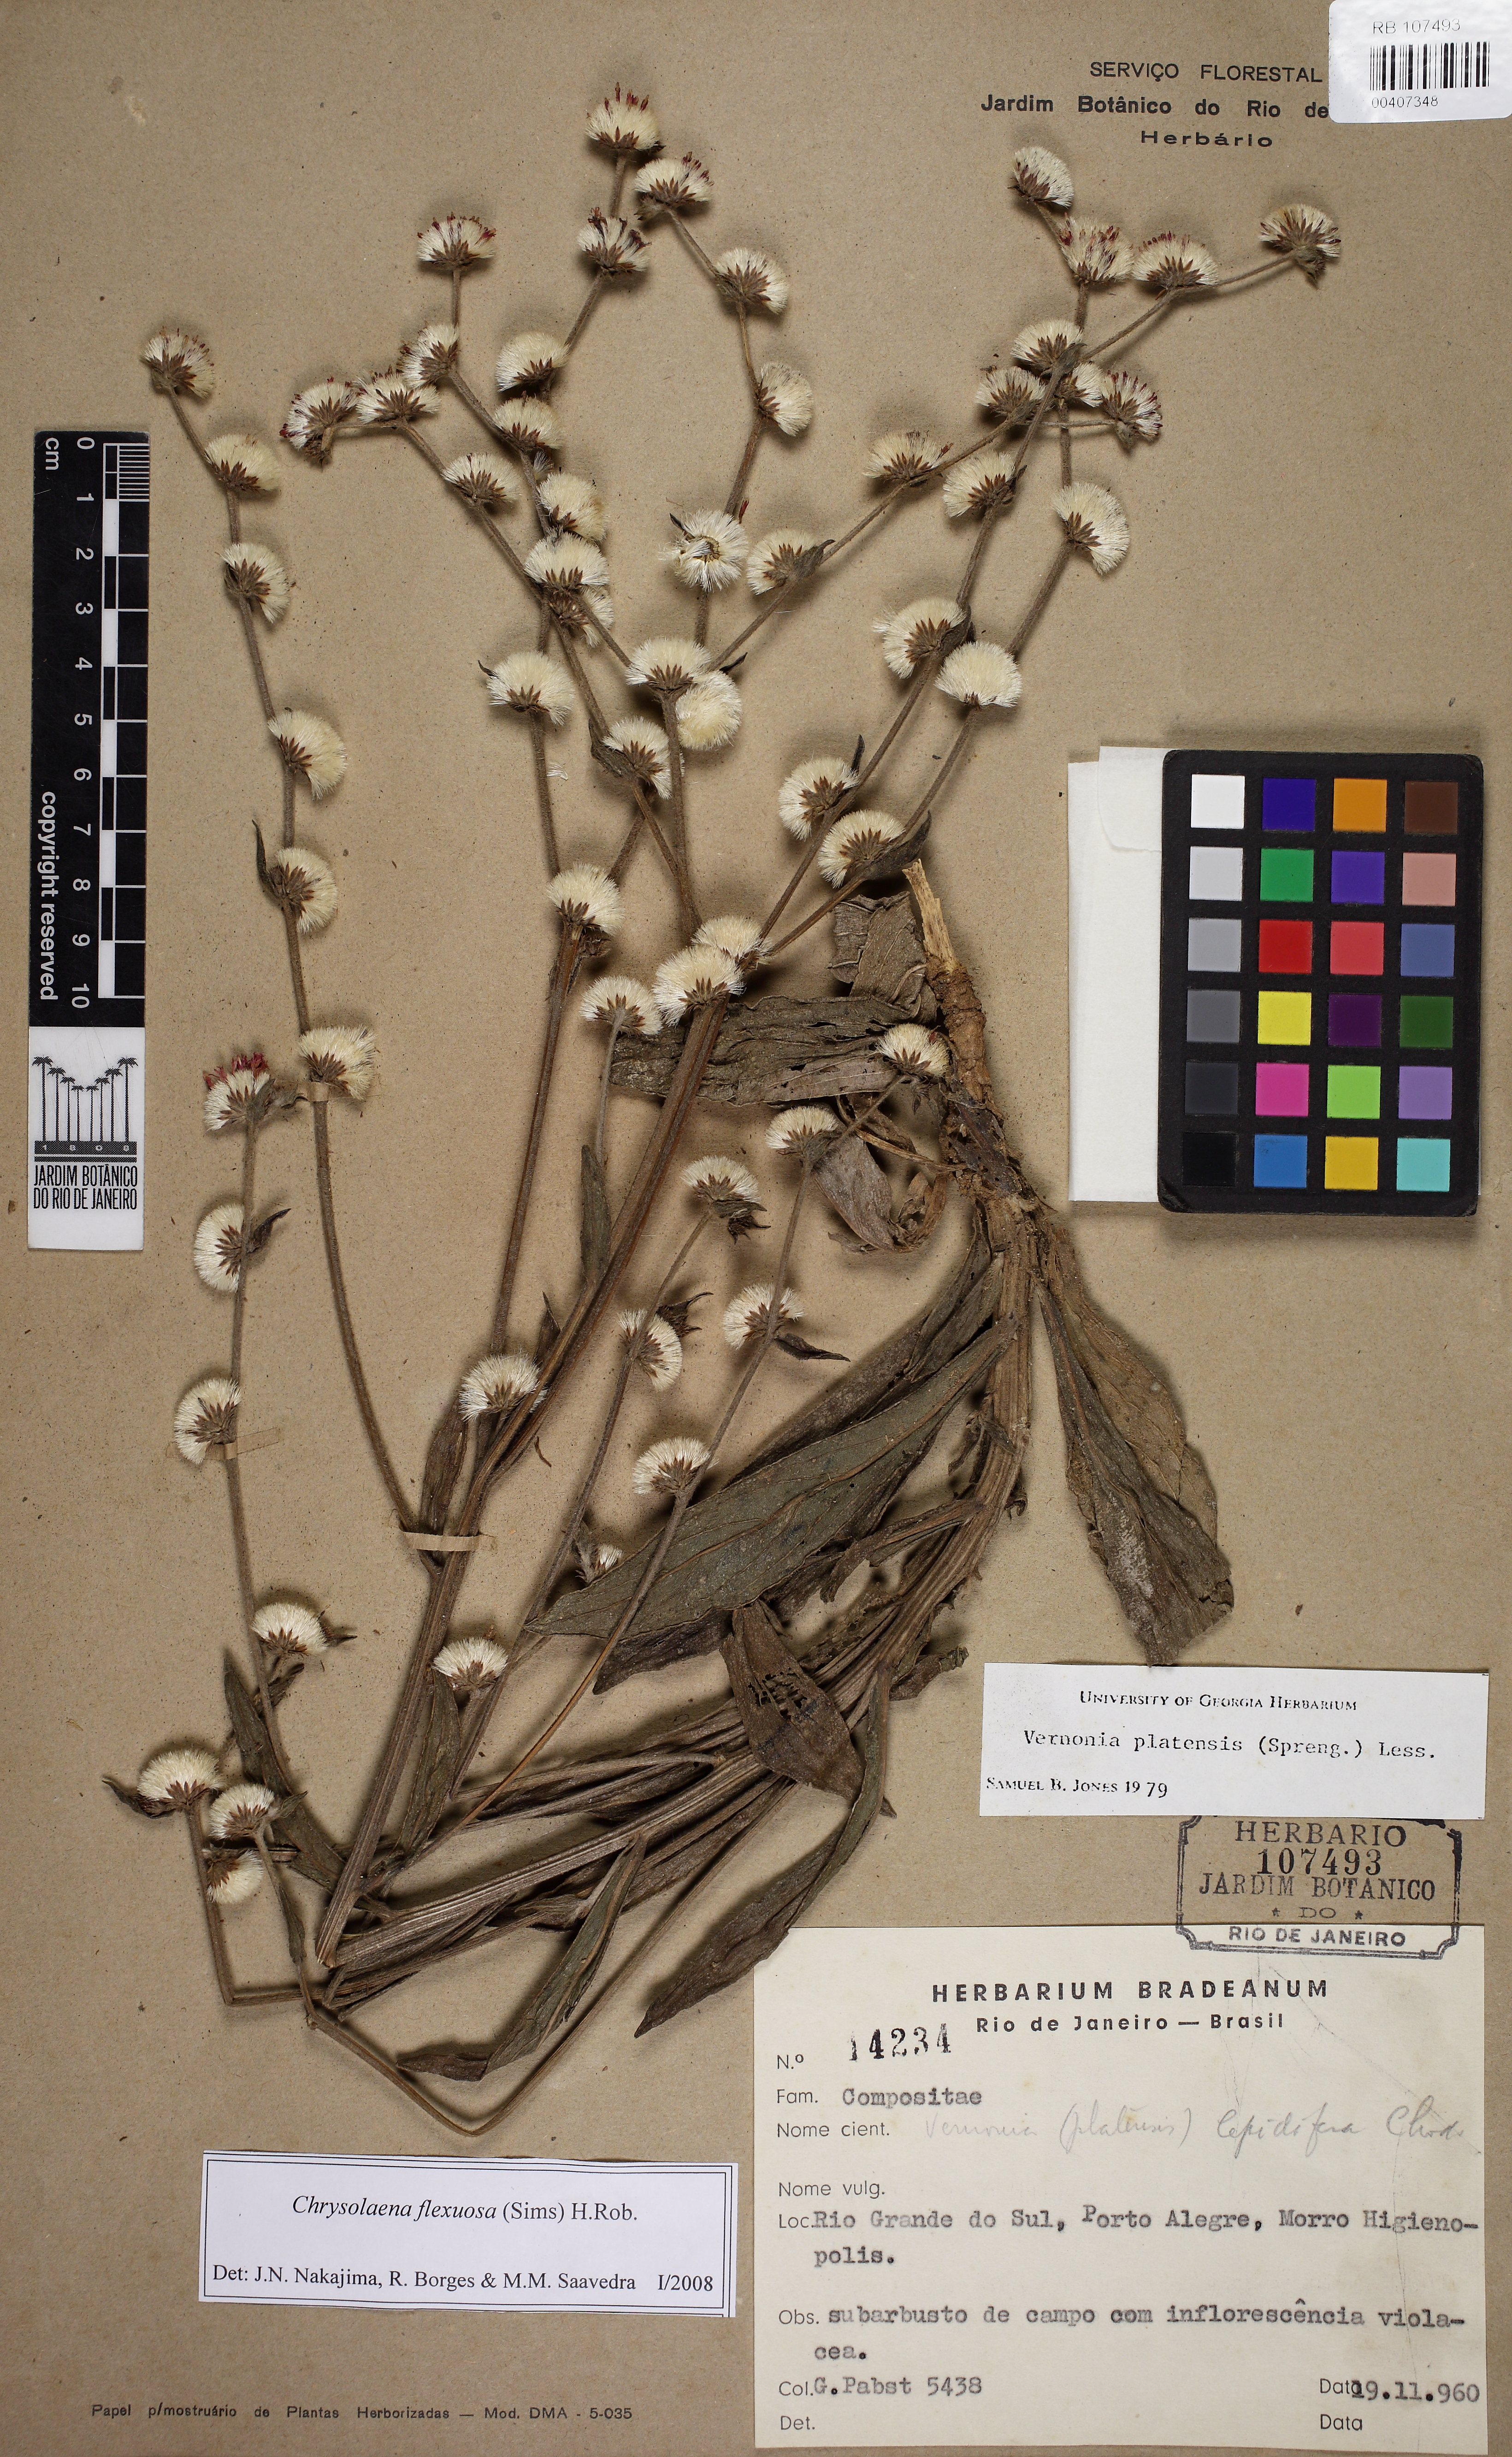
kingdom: Plantae
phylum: Tracheophyta
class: Magnoliopsida
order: Asterales
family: Asteraceae
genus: Chrysolaena
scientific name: Chrysolaena flexuosa
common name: Zig-zag vernonia
